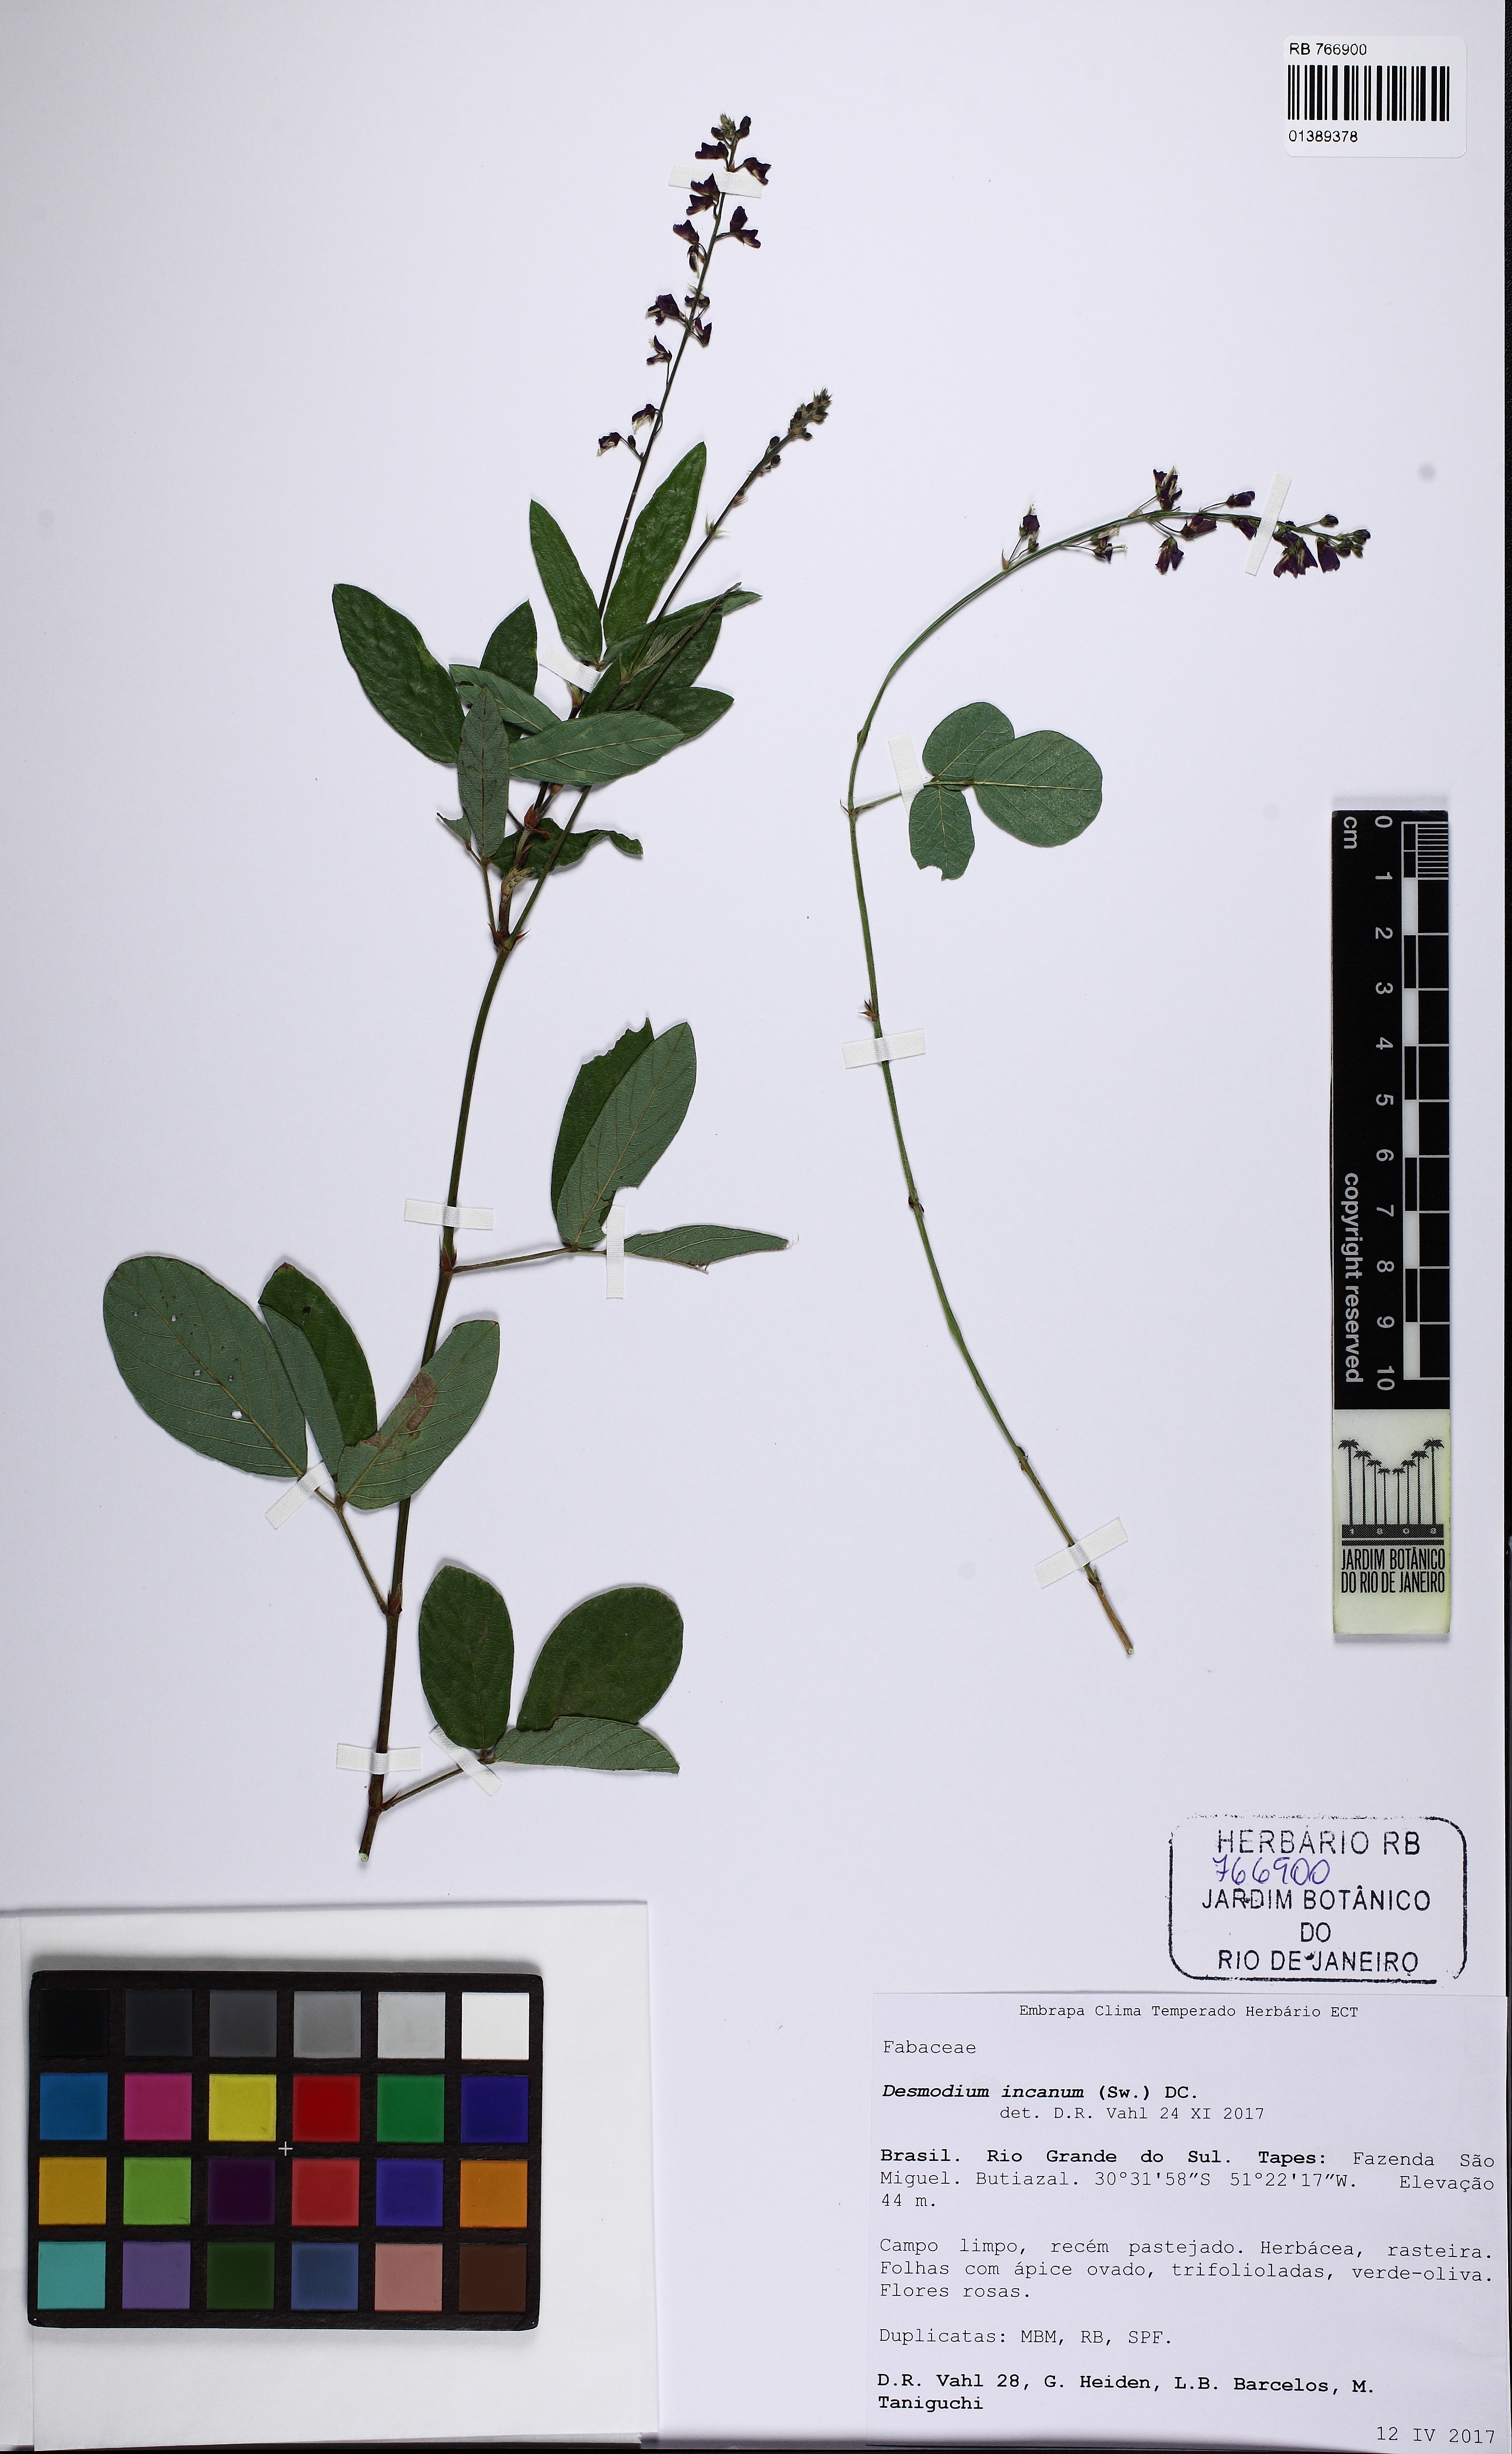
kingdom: Plantae
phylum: Tracheophyta
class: Magnoliopsida
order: Fabales
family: Fabaceae
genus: Desmodium
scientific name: Desmodium incanum
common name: Tickclover
